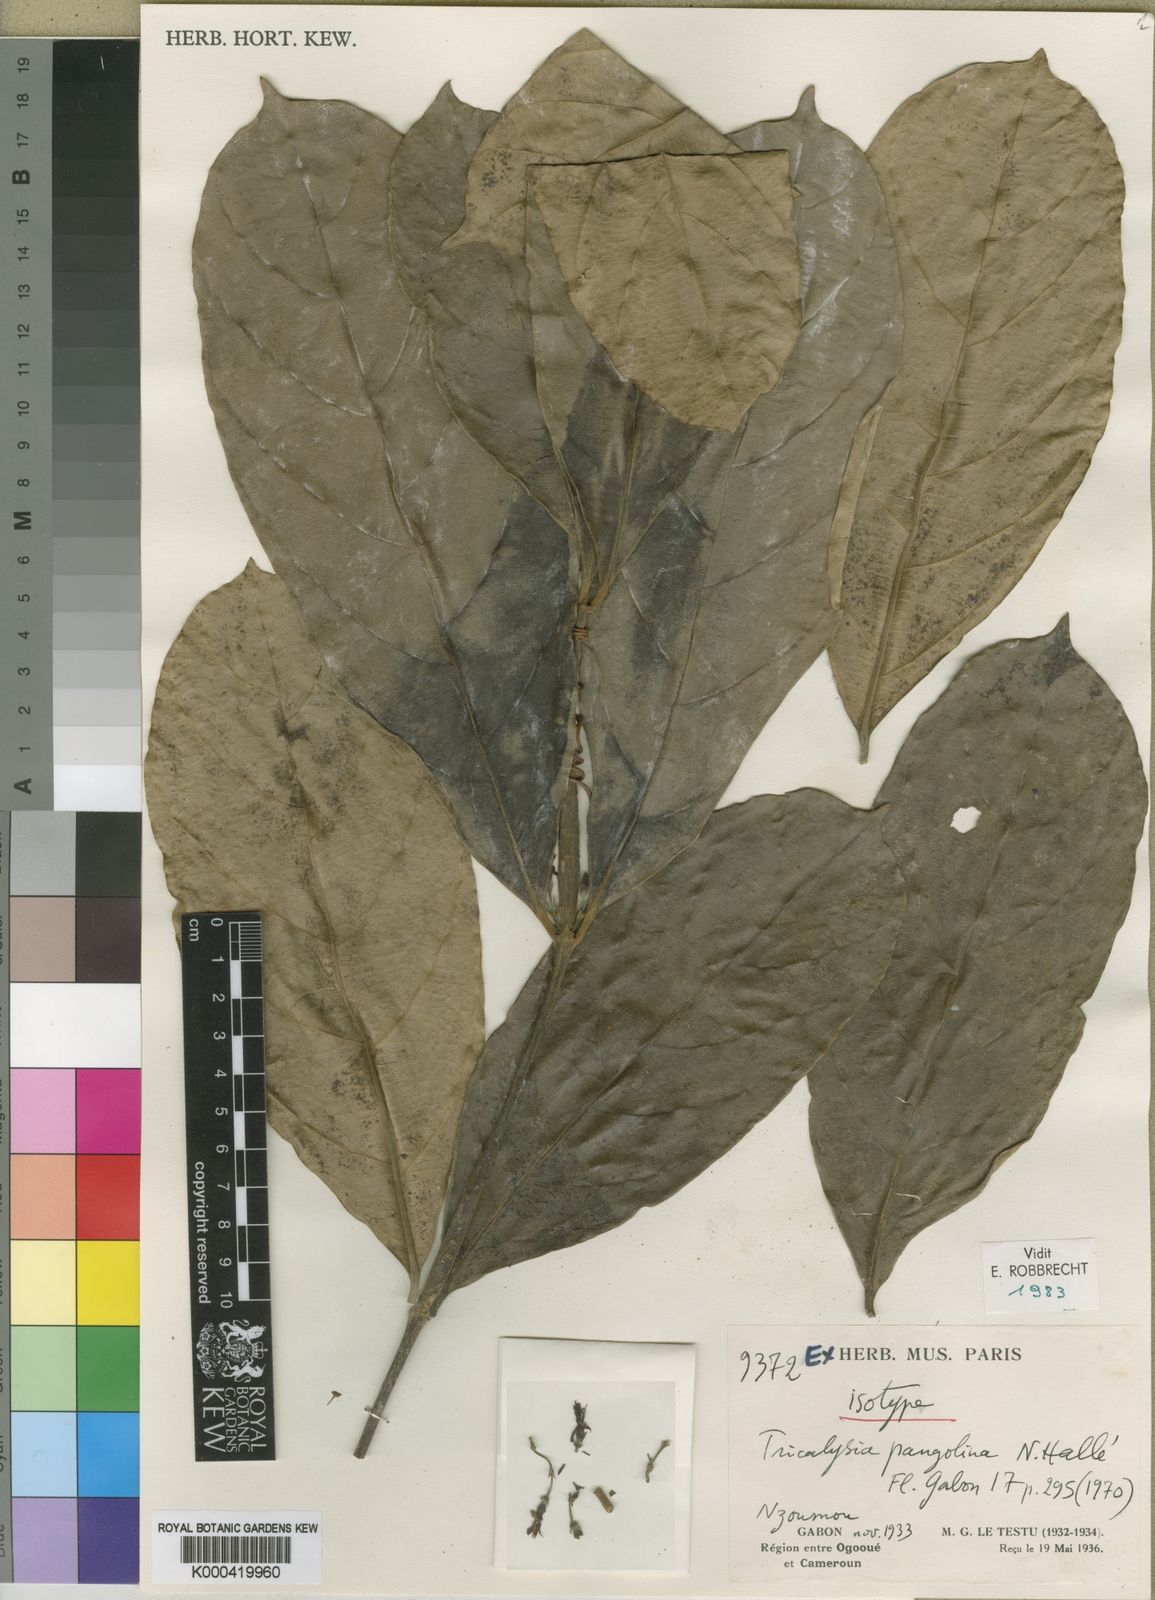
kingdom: Plantae
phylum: Tracheophyta
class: Magnoliopsida
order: Gentianales
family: Rubiaceae
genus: Tricalysia
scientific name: Tricalysia
